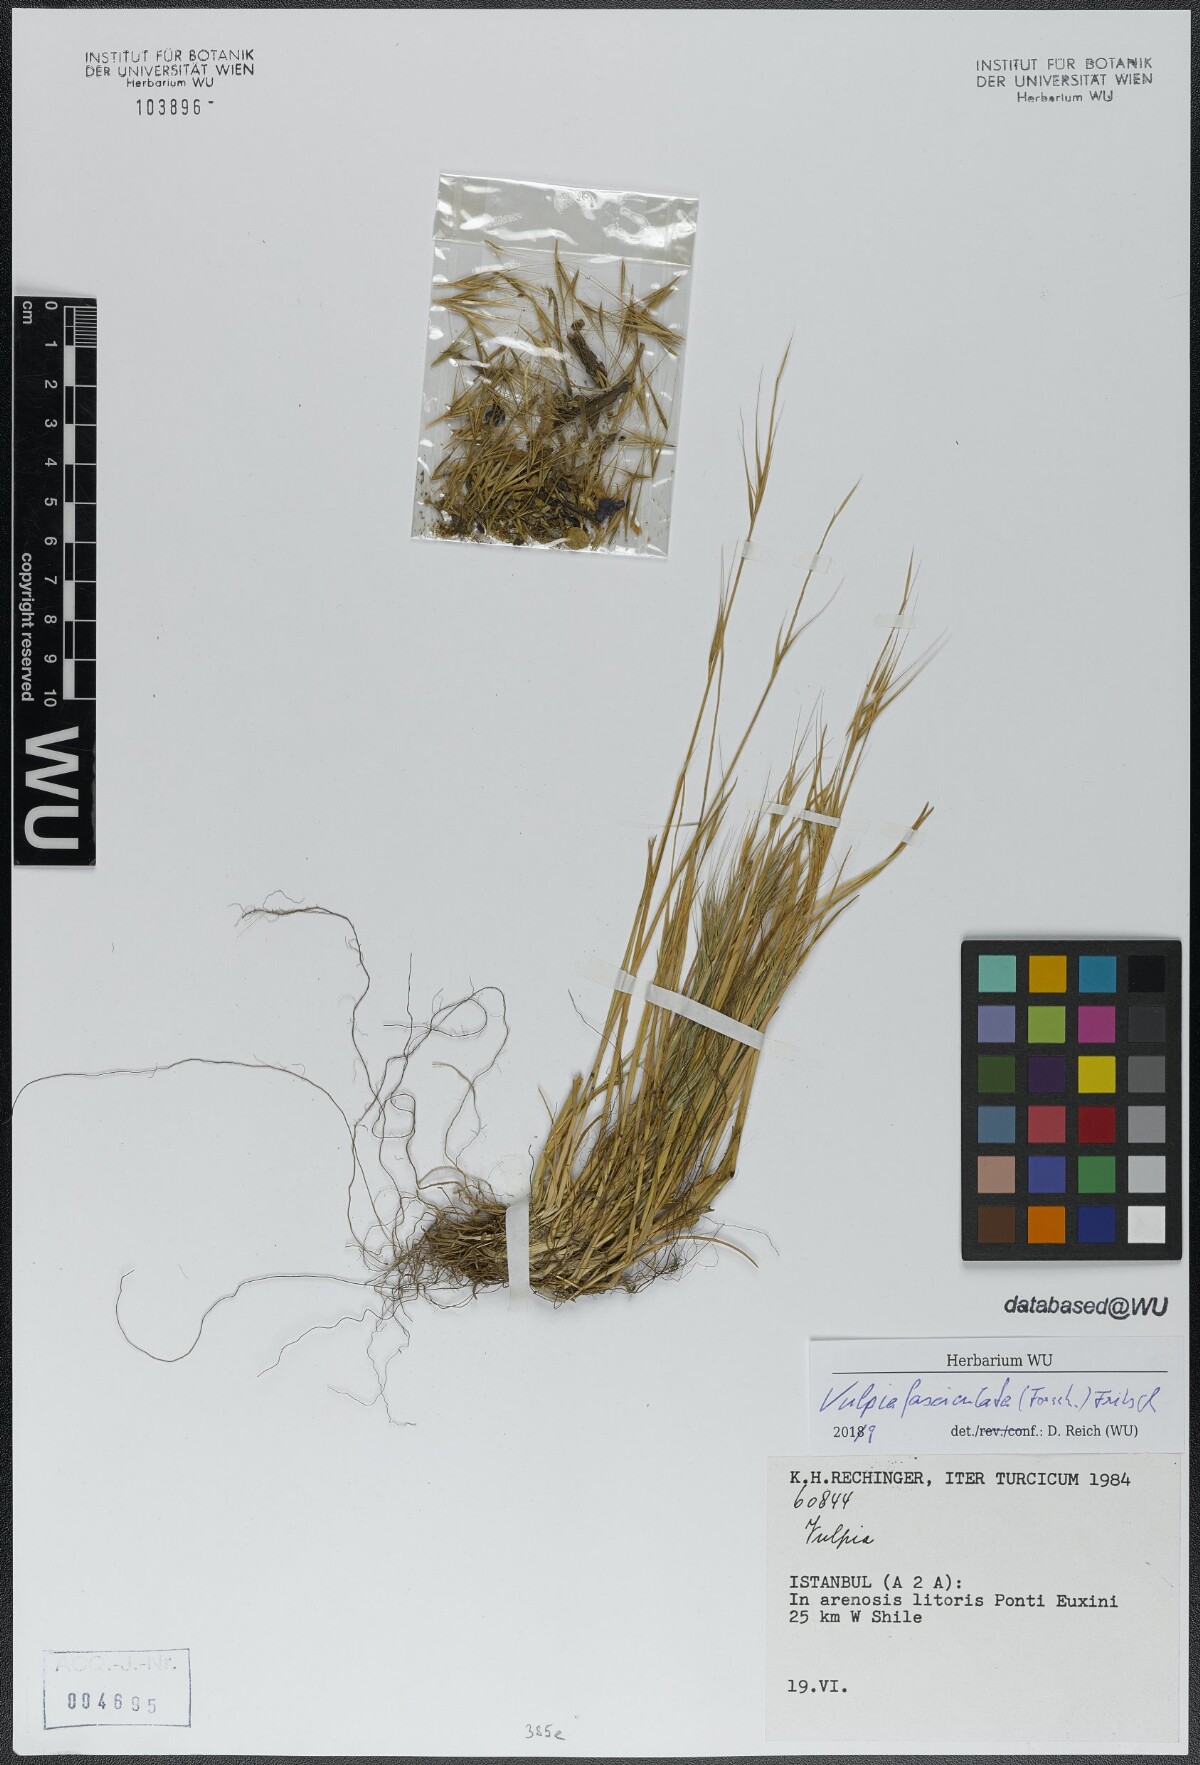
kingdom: Plantae
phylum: Tracheophyta
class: Liliopsida
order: Poales
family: Poaceae
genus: Festuca
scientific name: Festuca fasciculata
